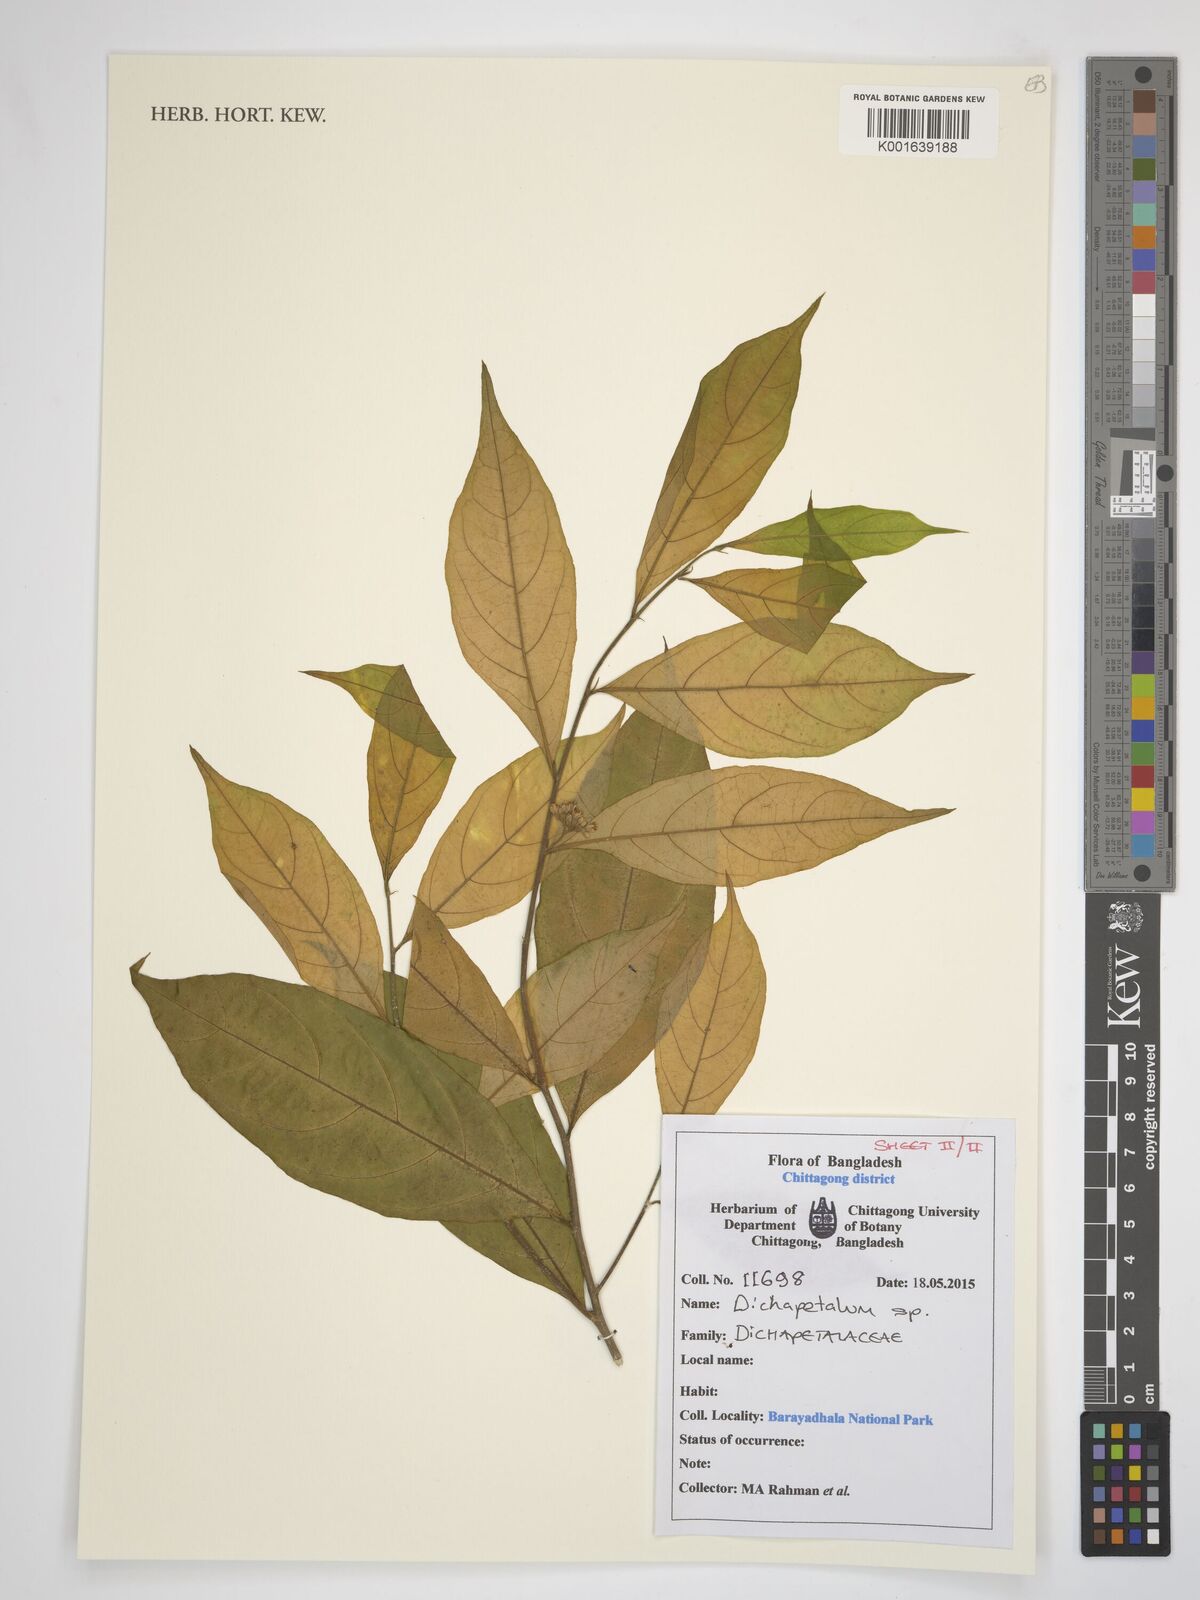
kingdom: Plantae
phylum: Tracheophyta
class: Magnoliopsida
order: Malpighiales
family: Dichapetalaceae
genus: Dichapetalum
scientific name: Dichapetalum
